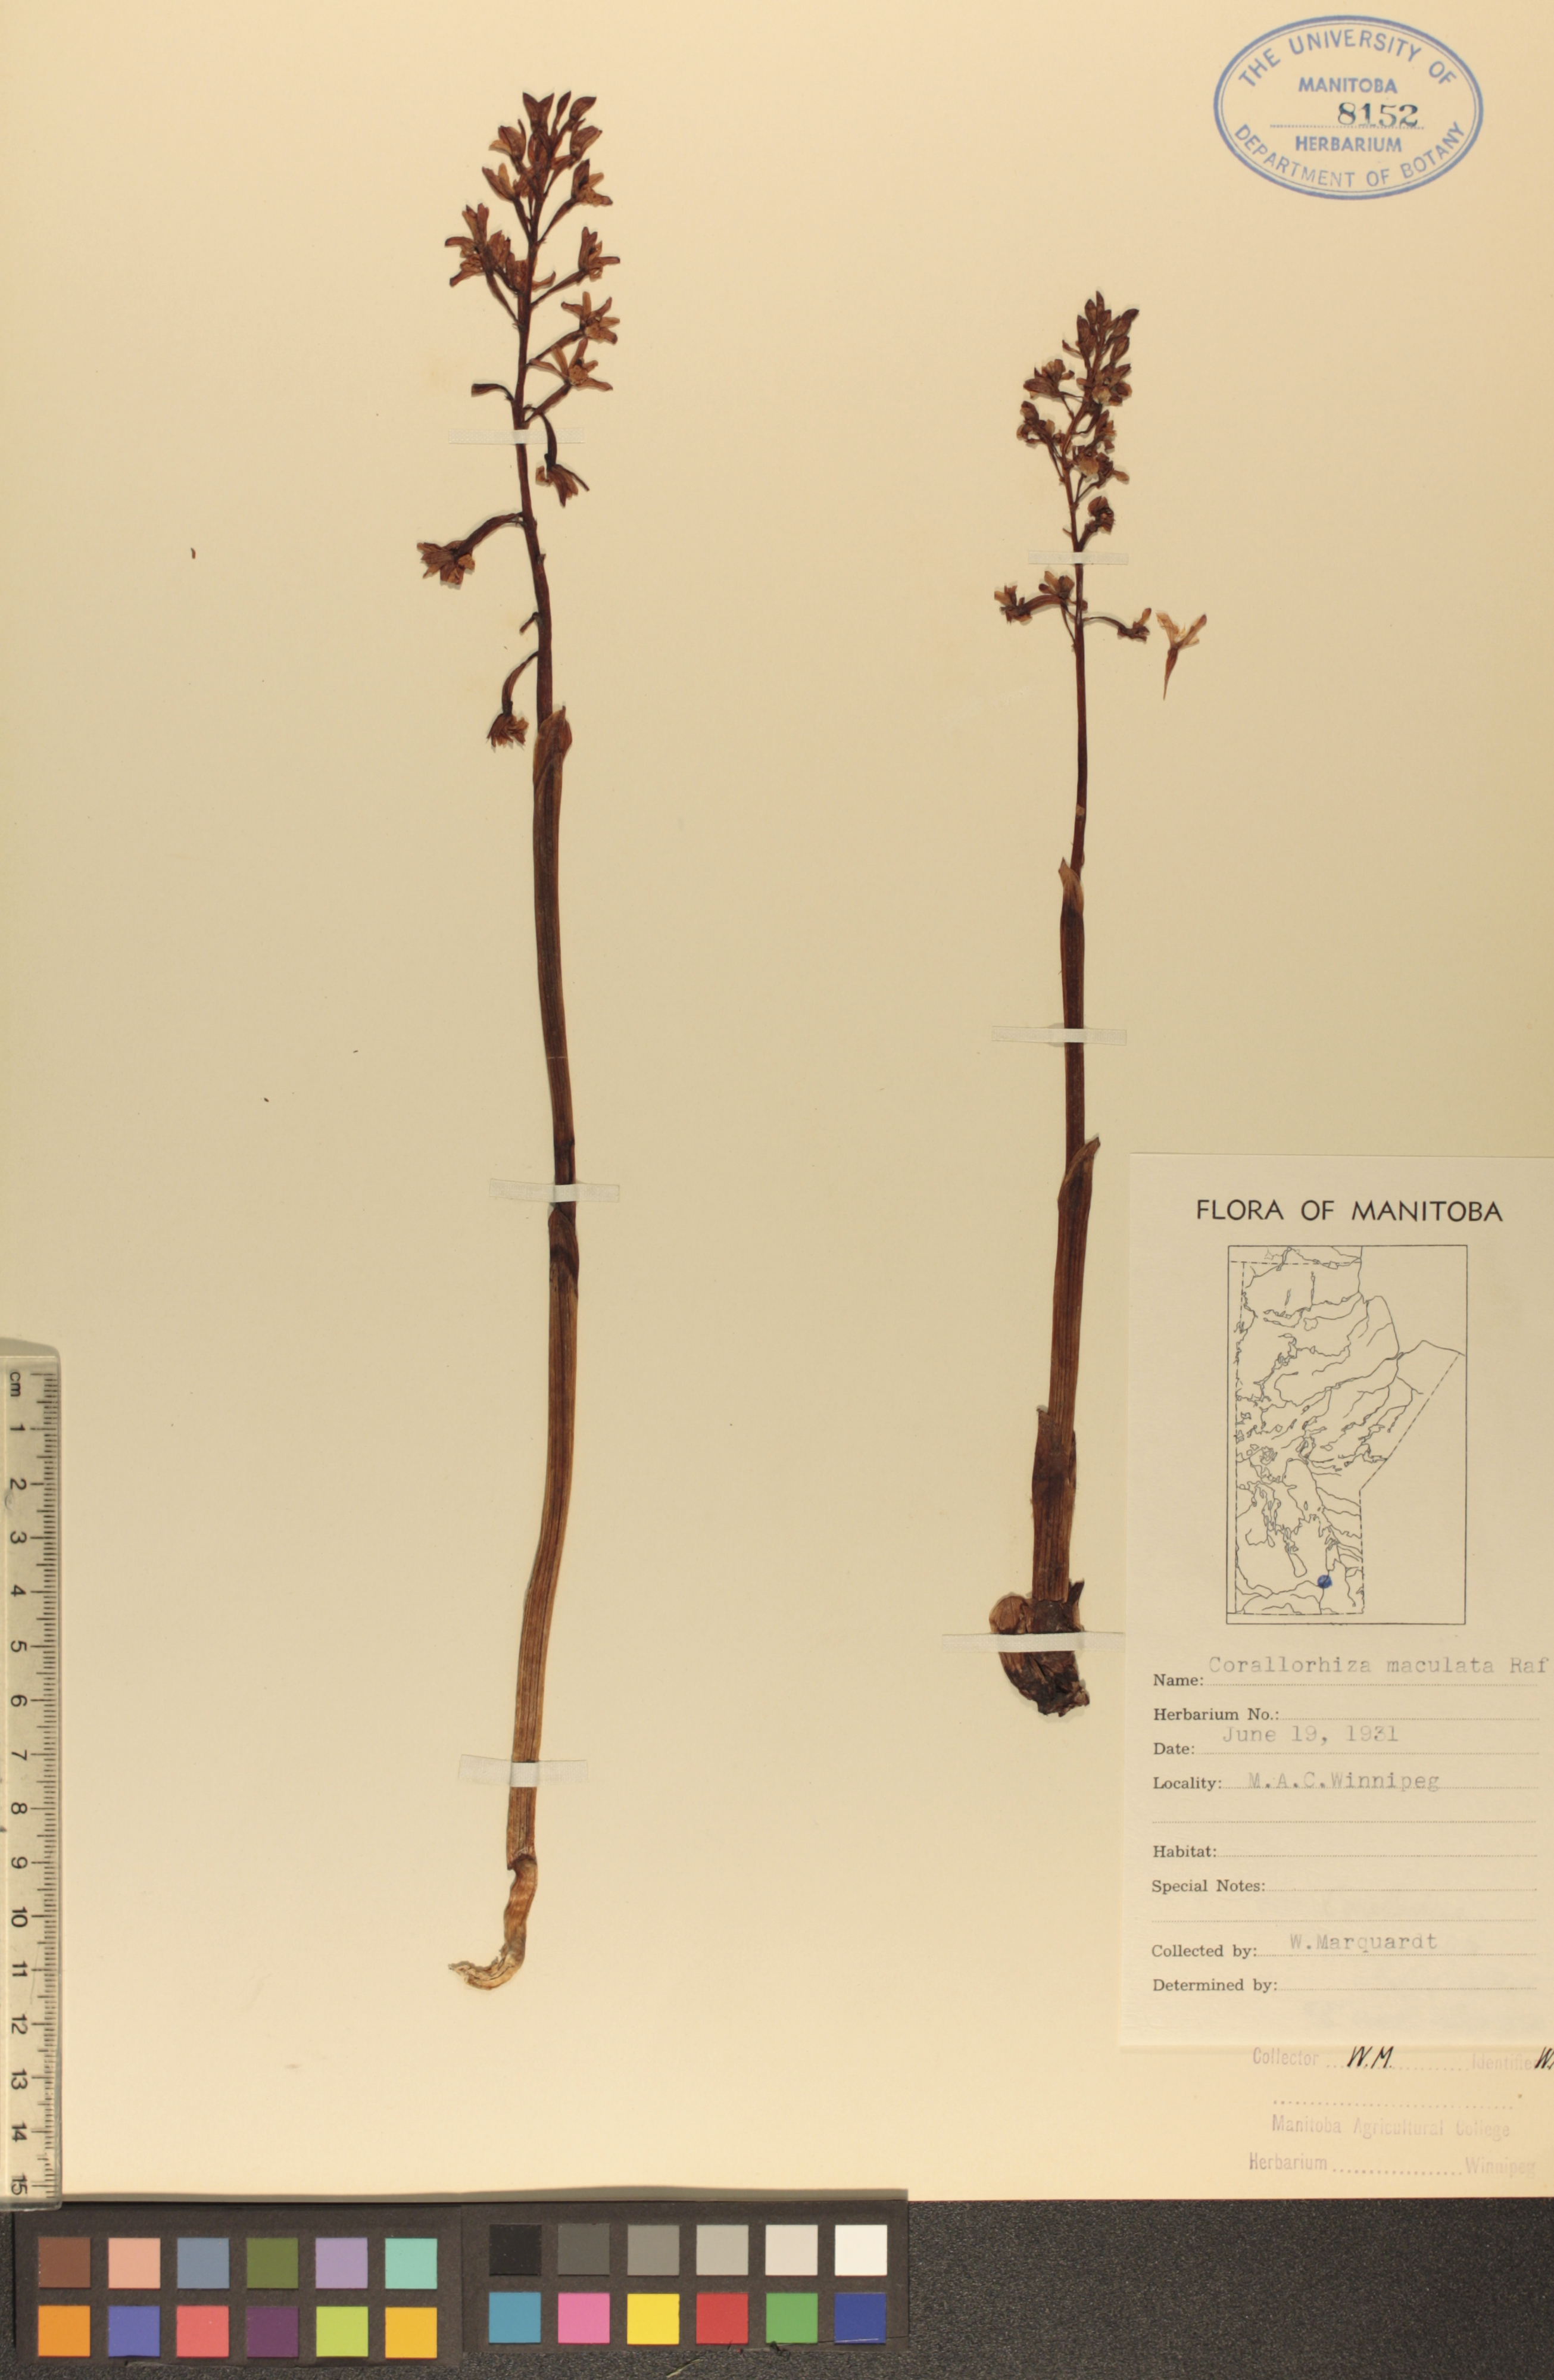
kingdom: Plantae
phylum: Tracheophyta
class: Liliopsida
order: Asparagales
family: Orchidaceae
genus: Corallorhiza
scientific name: Corallorhiza maculata
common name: Spotted coralroot
